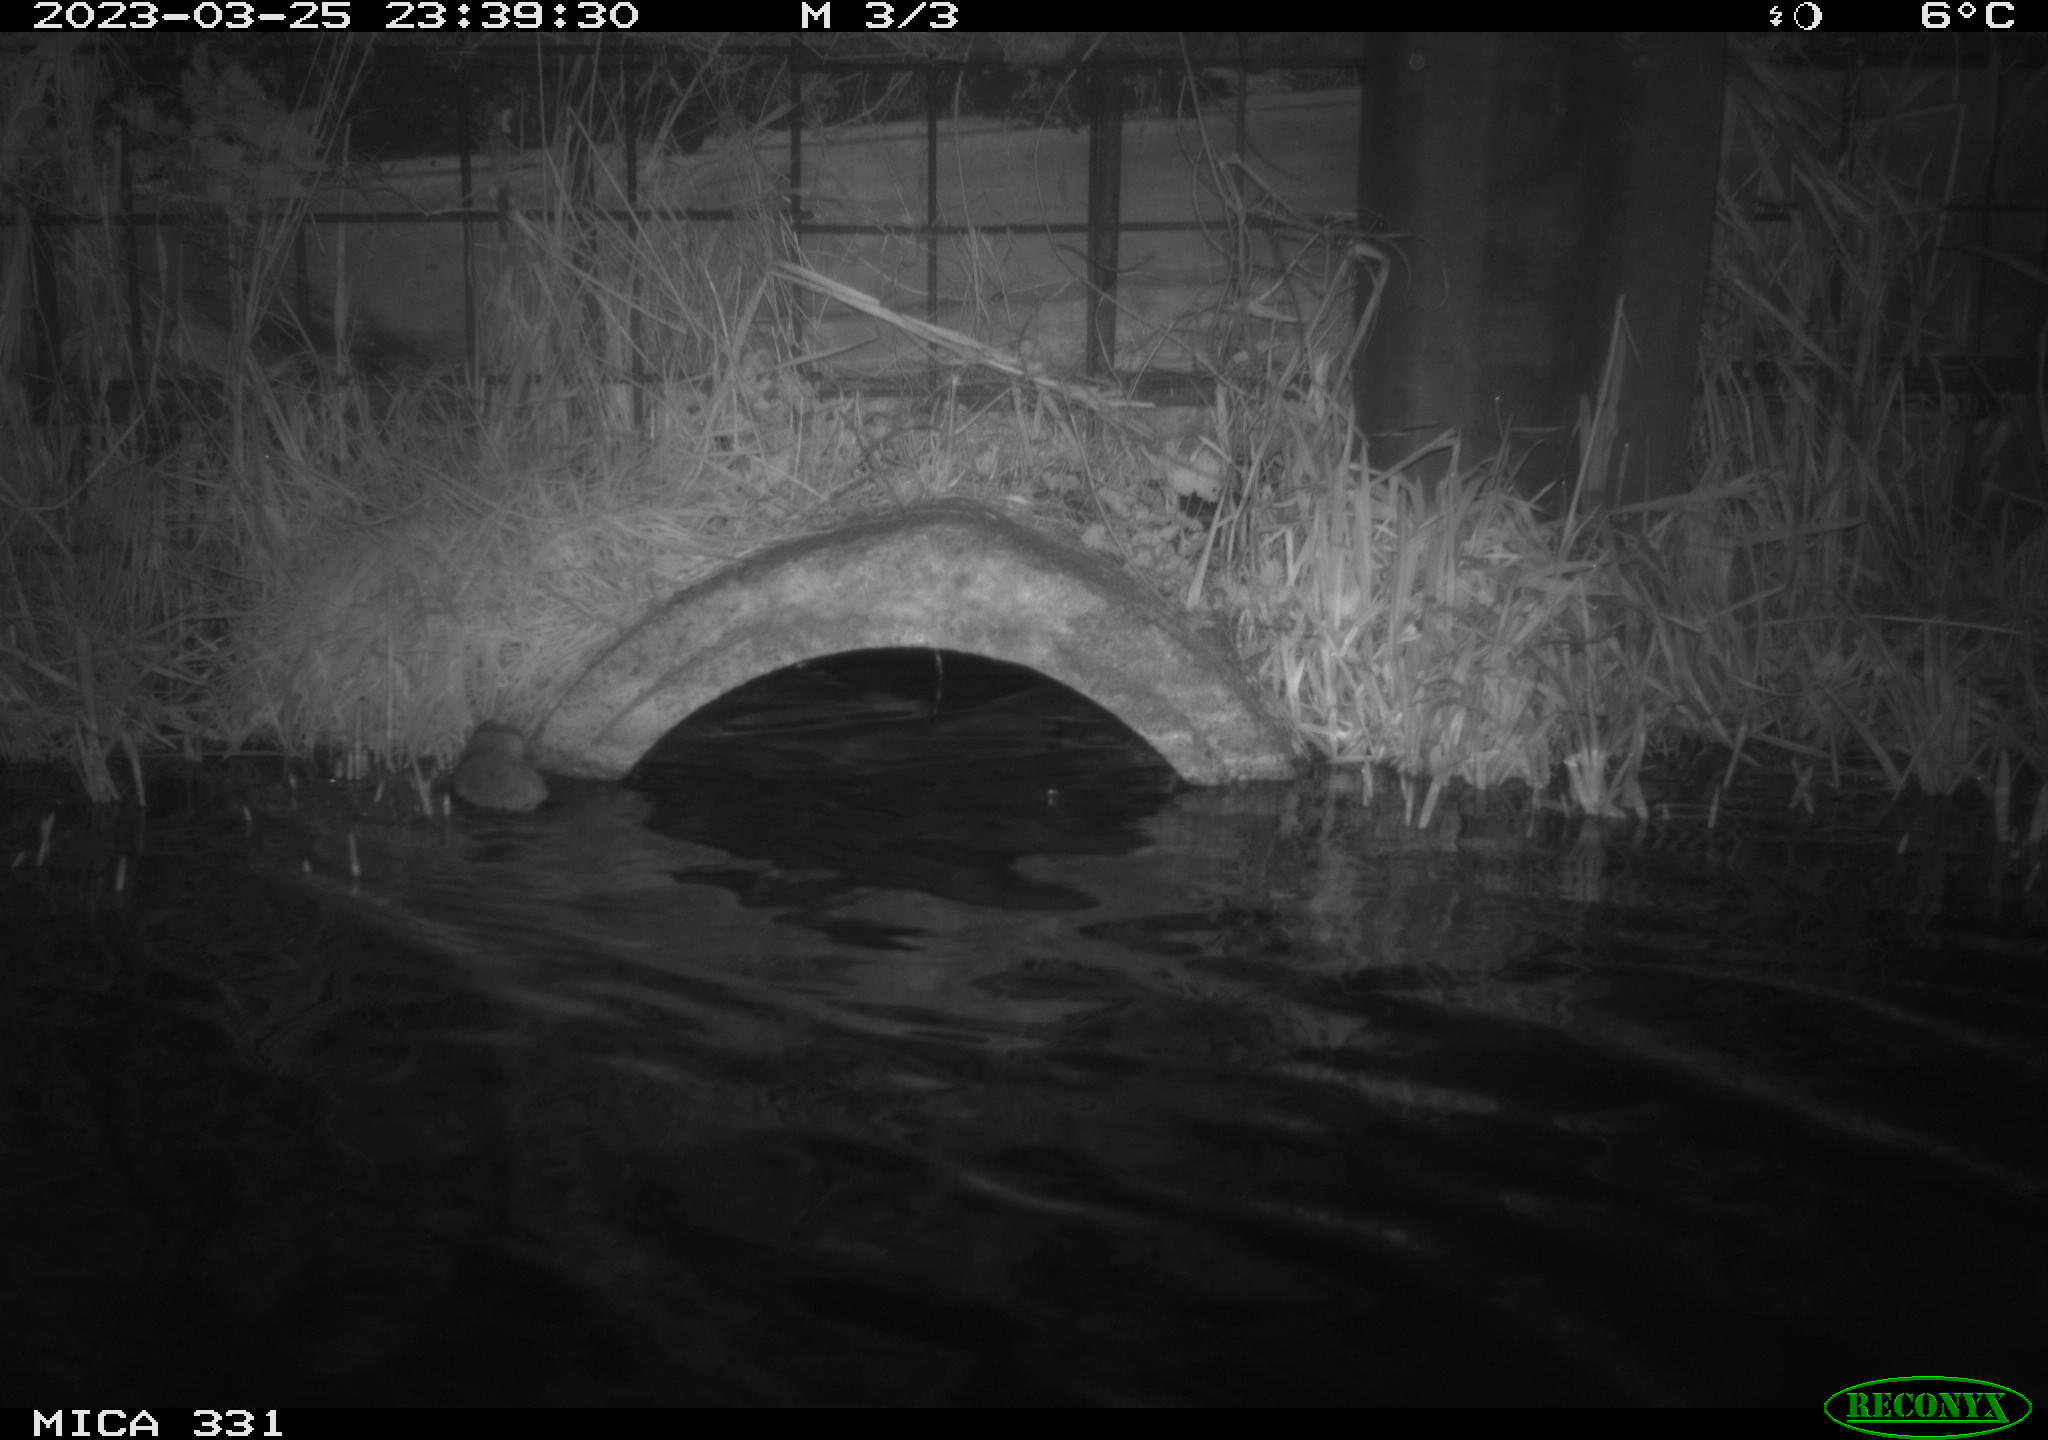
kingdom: Animalia
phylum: Chordata
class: Mammalia
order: Rodentia
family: Muridae
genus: Rattus
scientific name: Rattus norvegicus
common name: Brown rat
